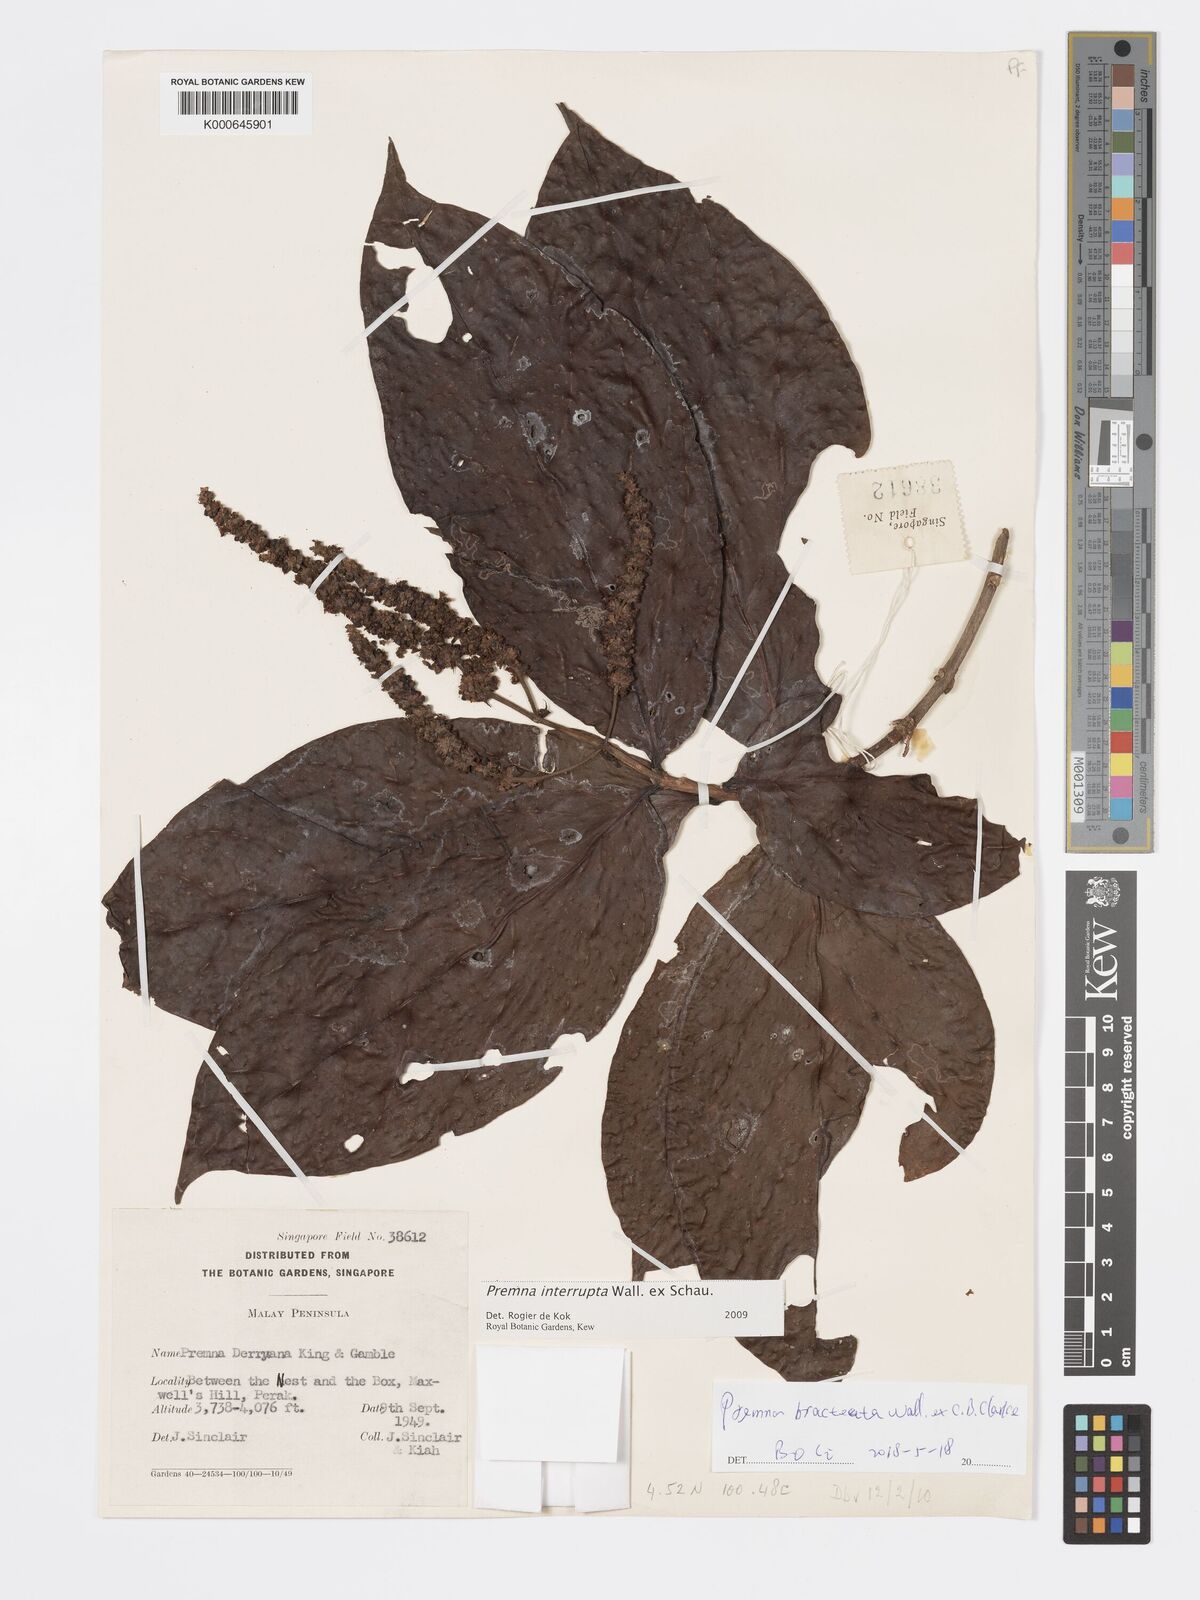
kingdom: Plantae
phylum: Tracheophyta
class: Magnoliopsida
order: Lamiales
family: Lamiaceae
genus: Premna
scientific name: Premna interrupta
